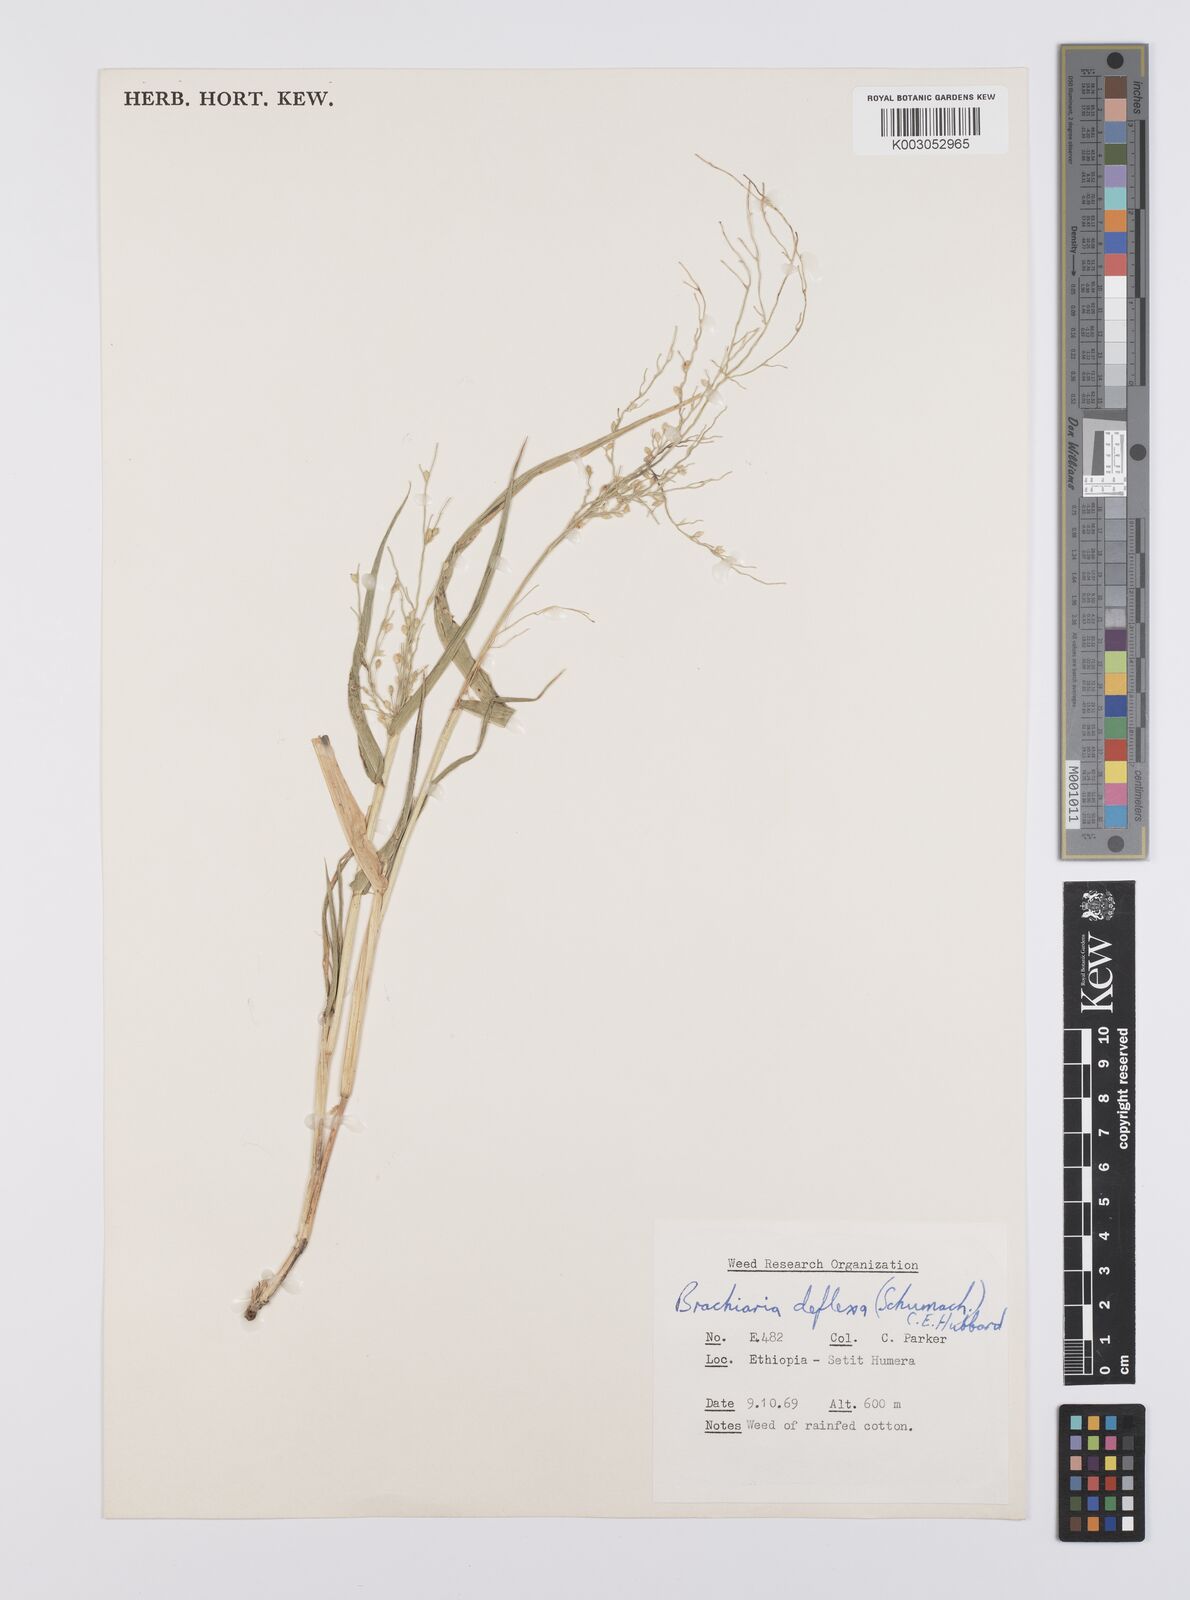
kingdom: Plantae
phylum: Tracheophyta
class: Liliopsida
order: Poales
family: Poaceae
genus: Urochloa
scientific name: Urochloa deflexa
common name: Guinea millet
